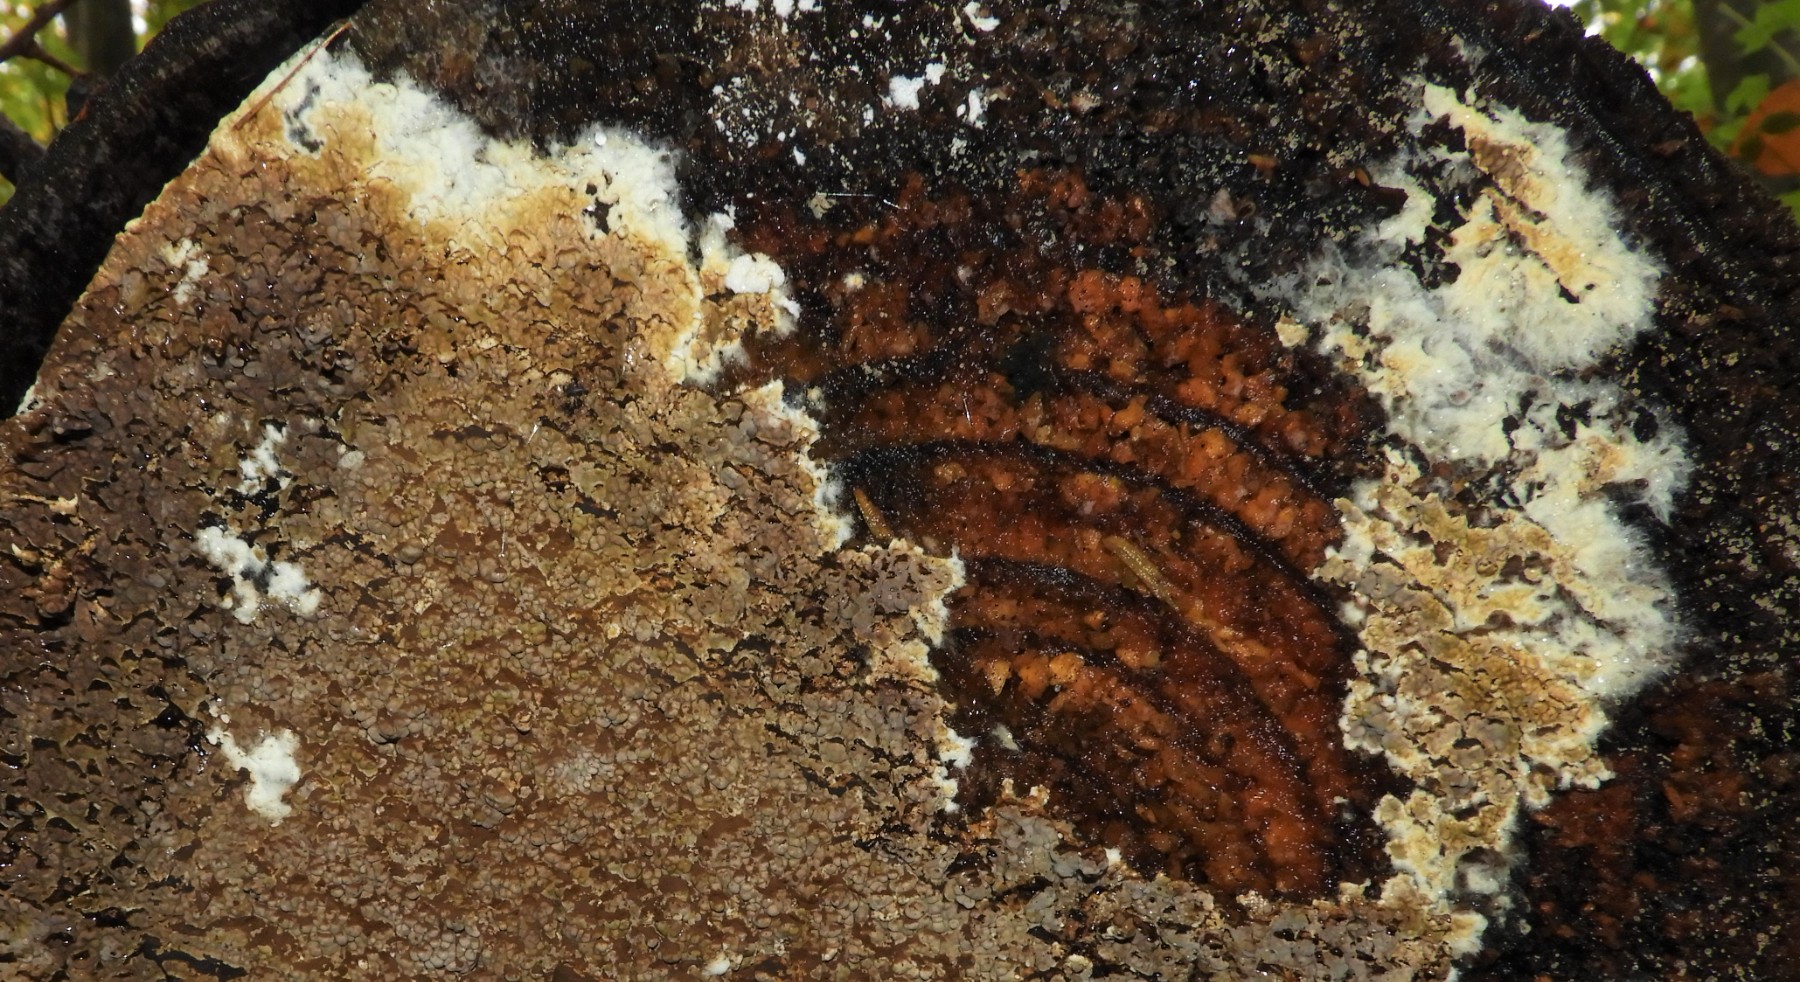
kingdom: Fungi
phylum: Basidiomycota
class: Agaricomycetes
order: Boletales
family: Coniophoraceae
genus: Coniophora
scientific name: Coniophora puteana
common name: gul tømmersvamp
